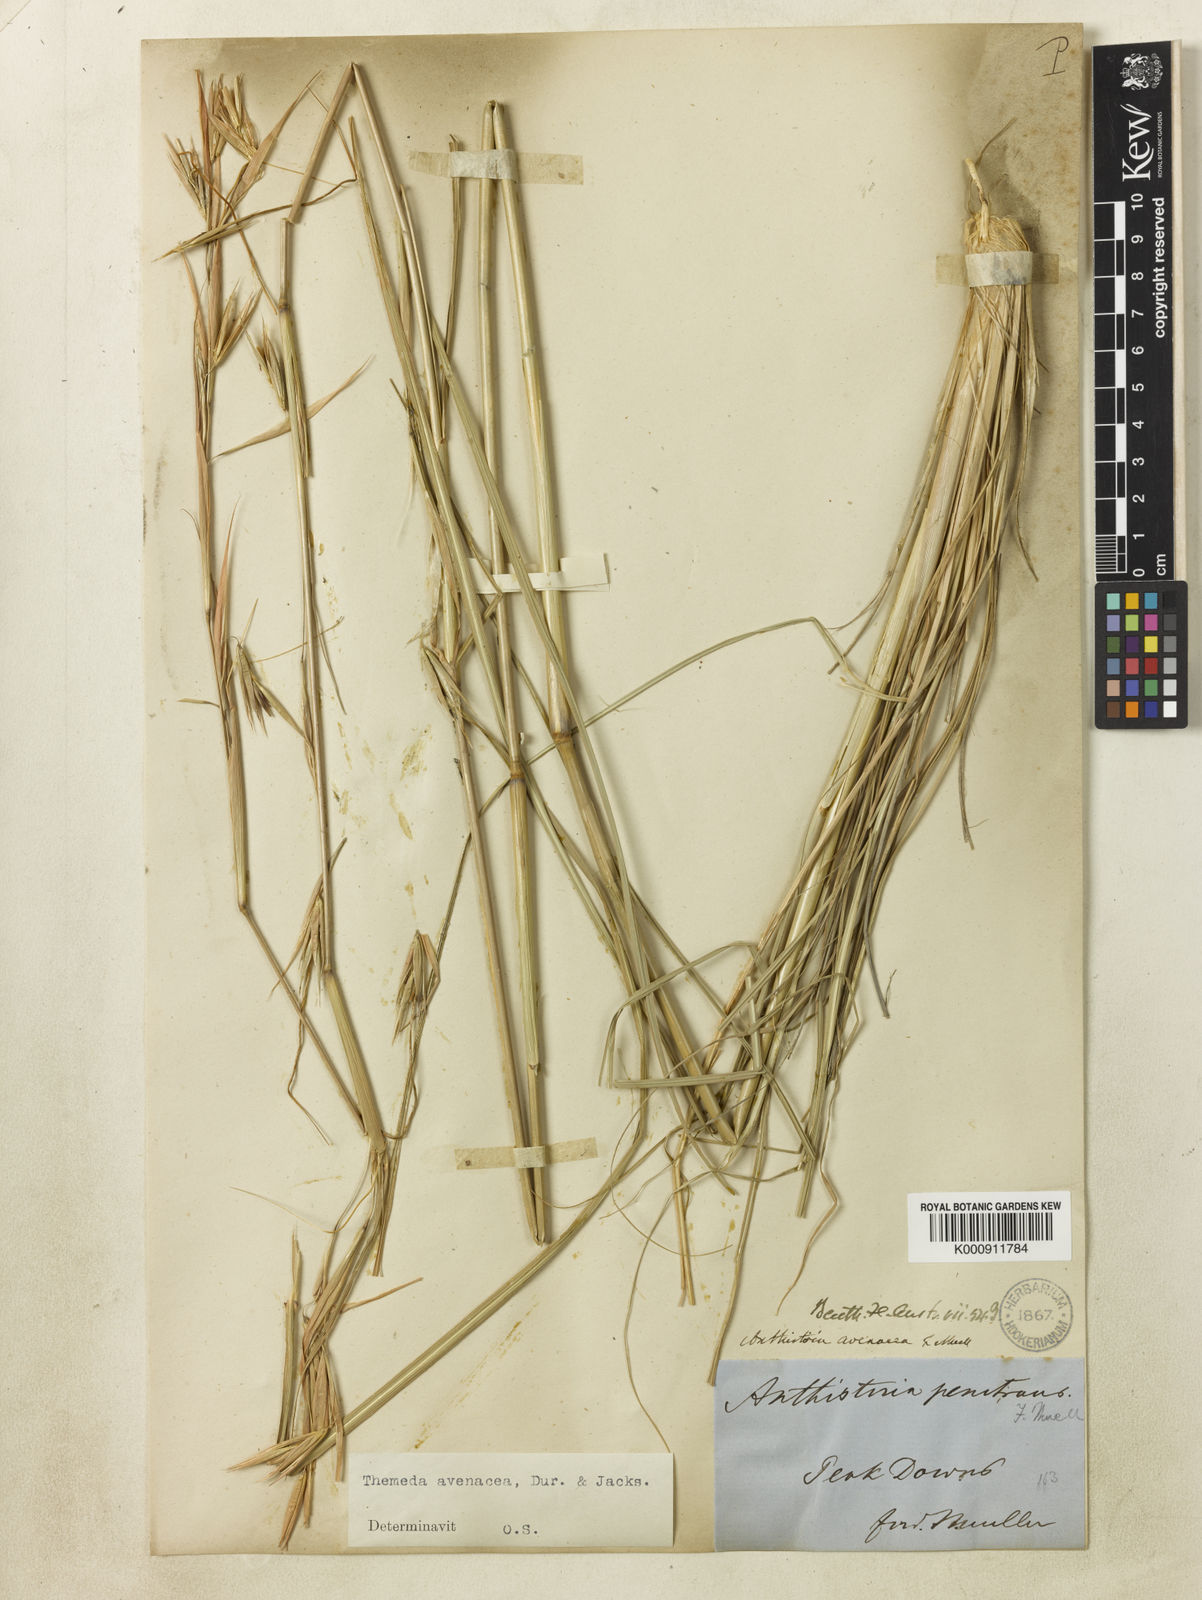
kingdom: Plantae
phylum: Tracheophyta
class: Liliopsida
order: Poales
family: Poaceae
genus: Themeda
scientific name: Themeda avenacea
